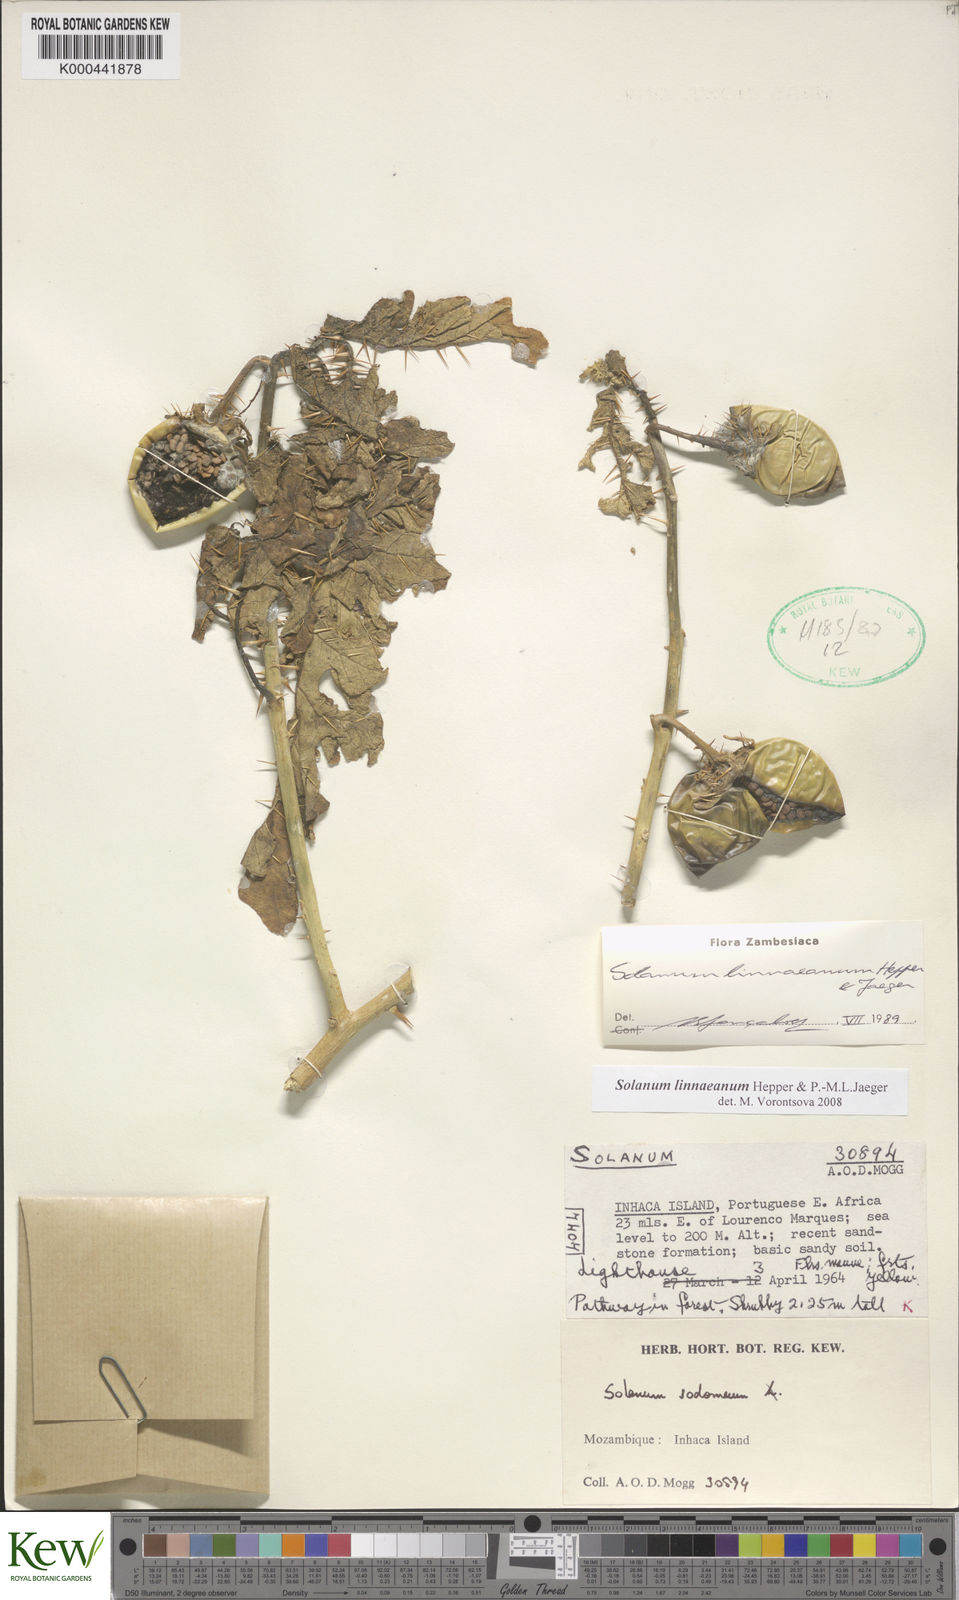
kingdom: Plantae
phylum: Tracheophyta
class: Magnoliopsida
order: Solanales
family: Solanaceae
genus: Solanum
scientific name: Solanum linnaeanum
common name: Nightshade
